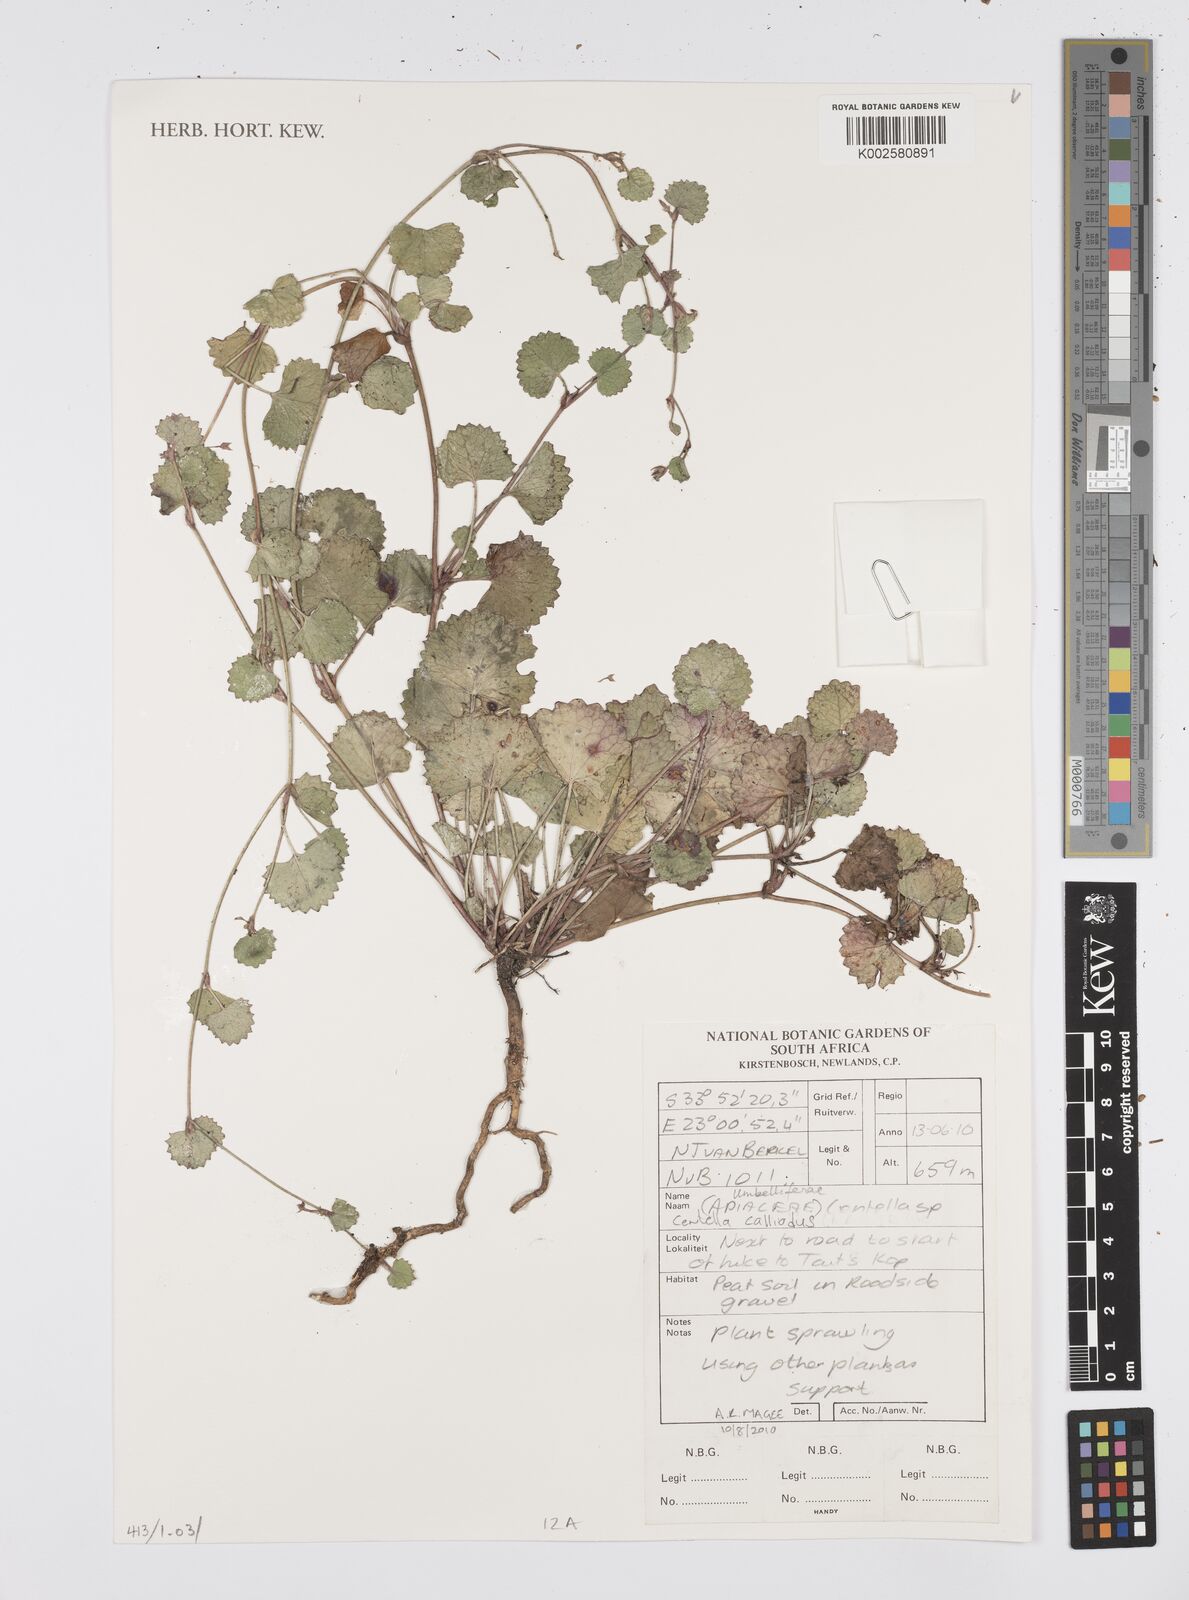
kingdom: Plantae
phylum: Tracheophyta
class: Magnoliopsida
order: Apiales
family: Apiaceae
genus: Centella
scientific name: Centella
